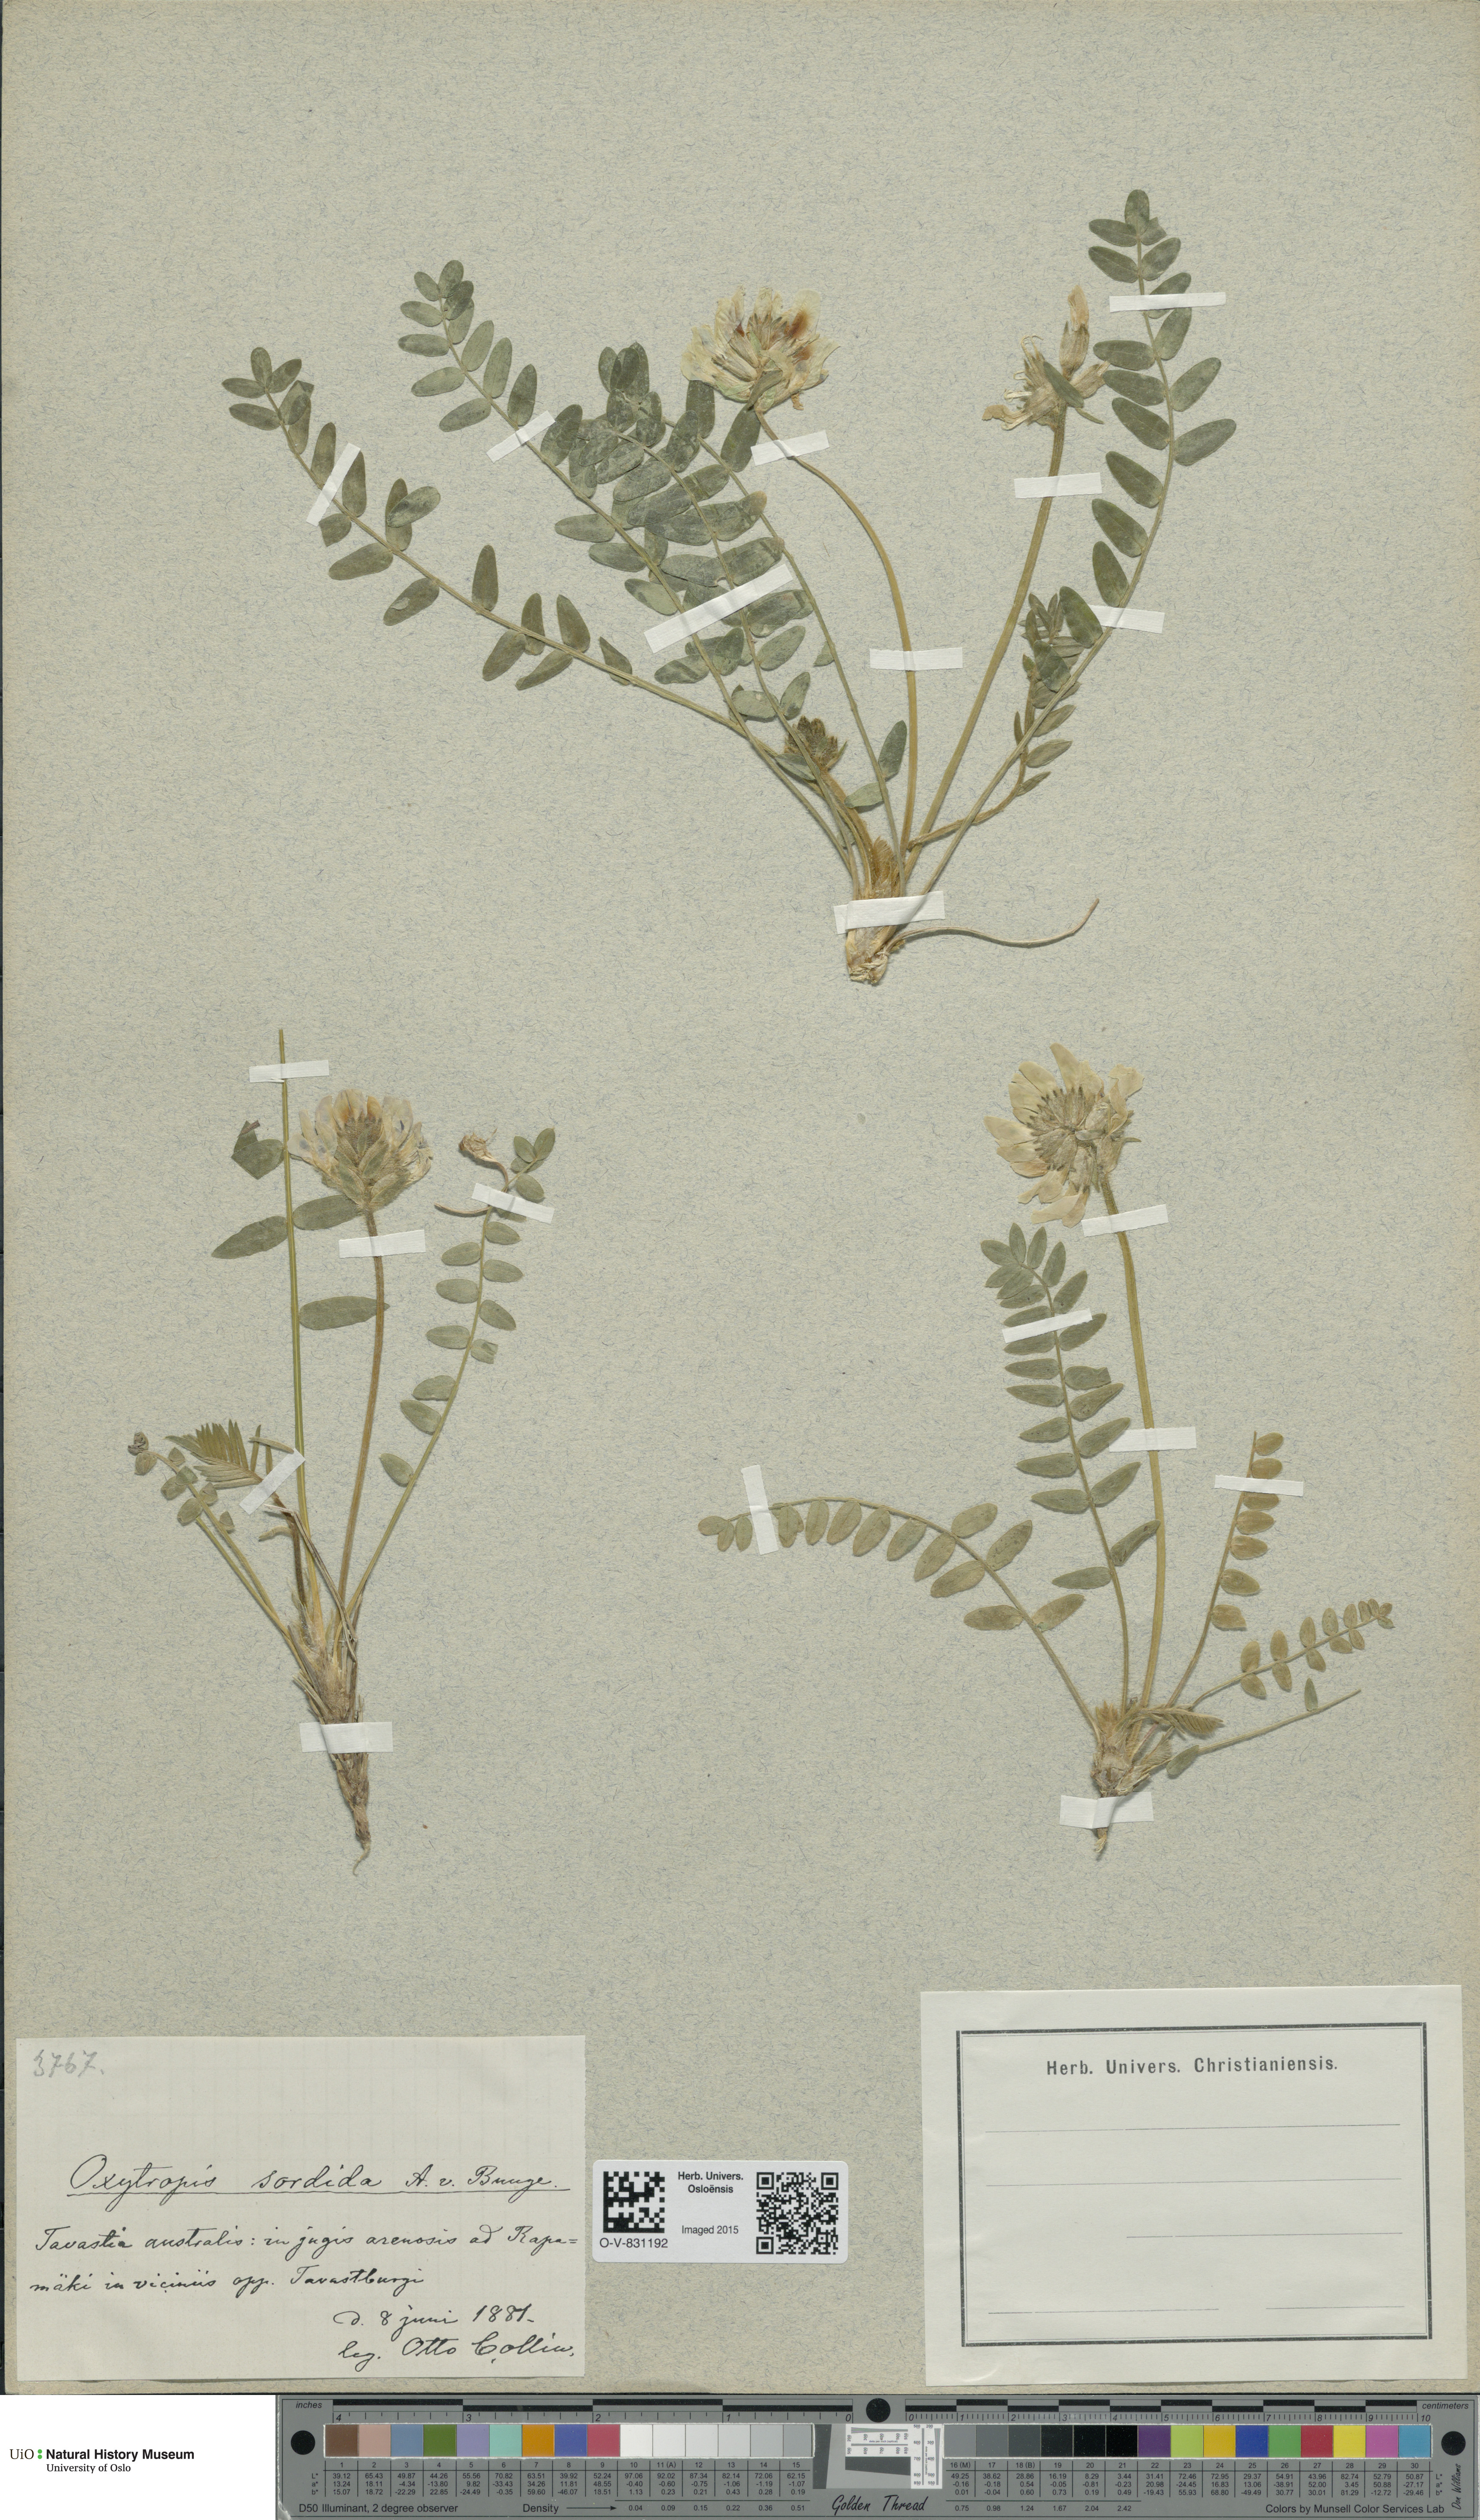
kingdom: Plantae
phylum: Tracheophyta
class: Magnoliopsida
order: Fabales
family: Fabaceae
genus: Oxytropis
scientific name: Oxytropis sordida
